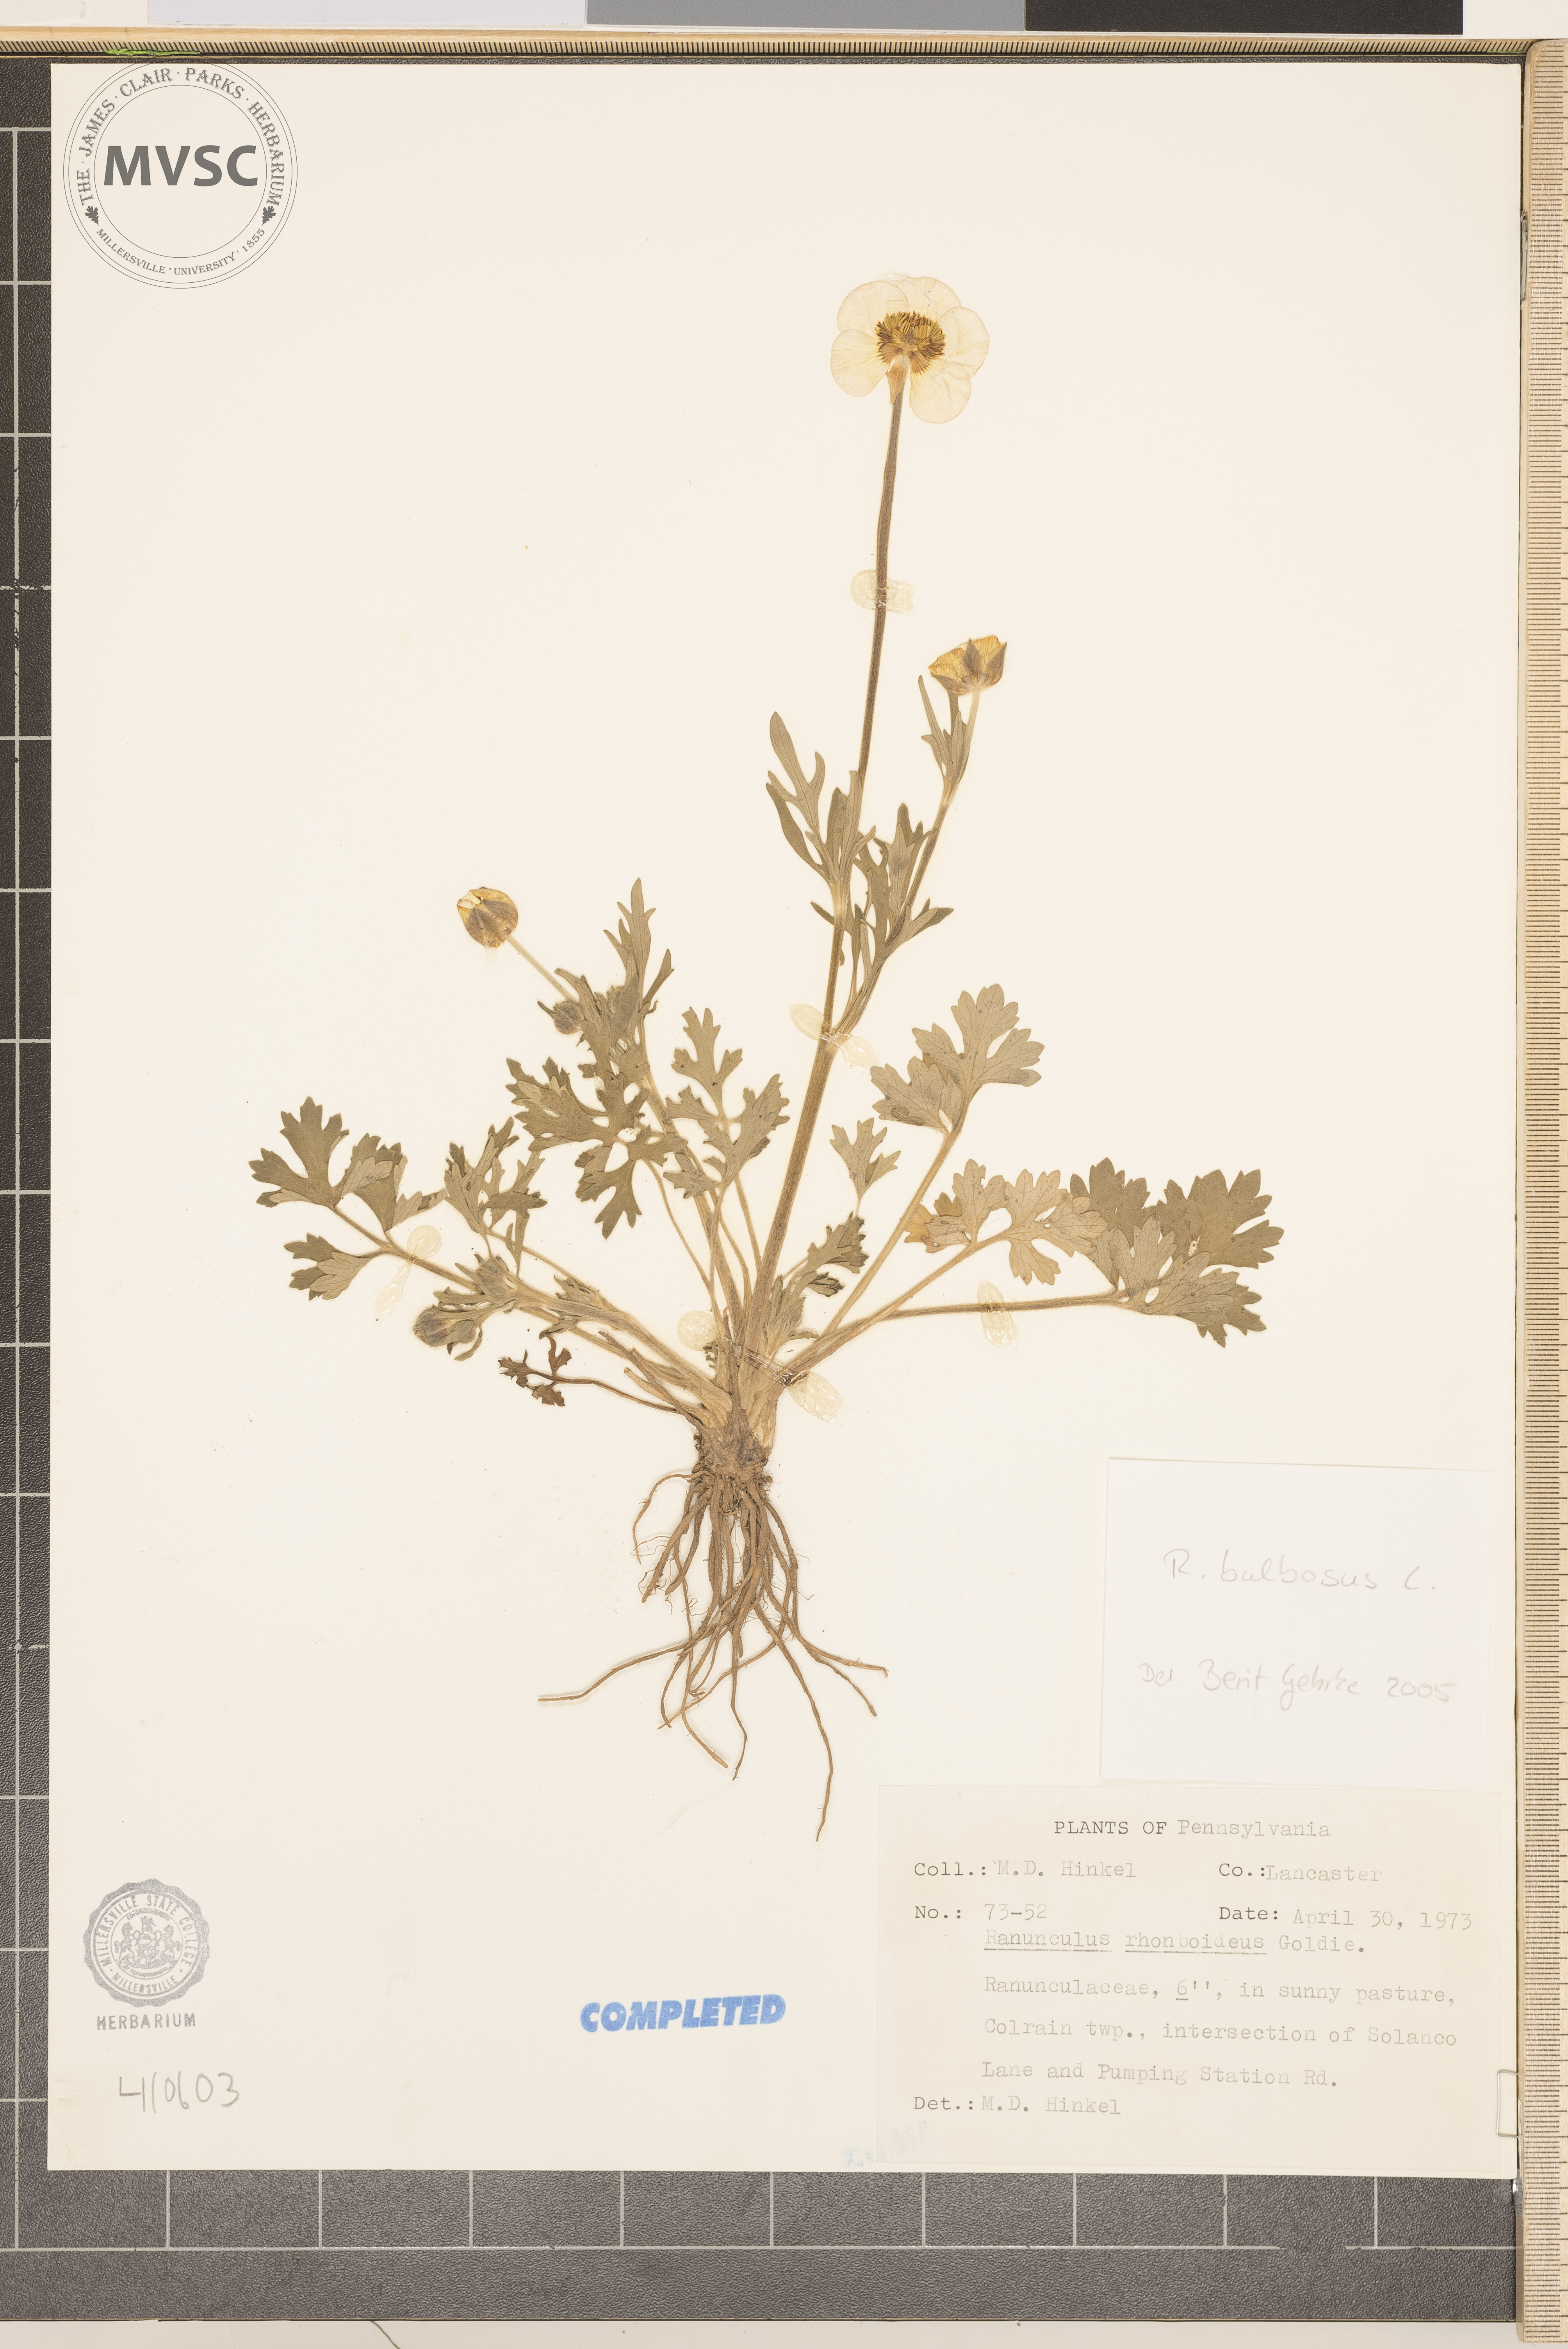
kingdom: Plantae
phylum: Tracheophyta
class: Magnoliopsida
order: Ranunculales
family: Ranunculaceae
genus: Ranunculus
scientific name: Ranunculus bulbosus
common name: Bulbous buttercup
